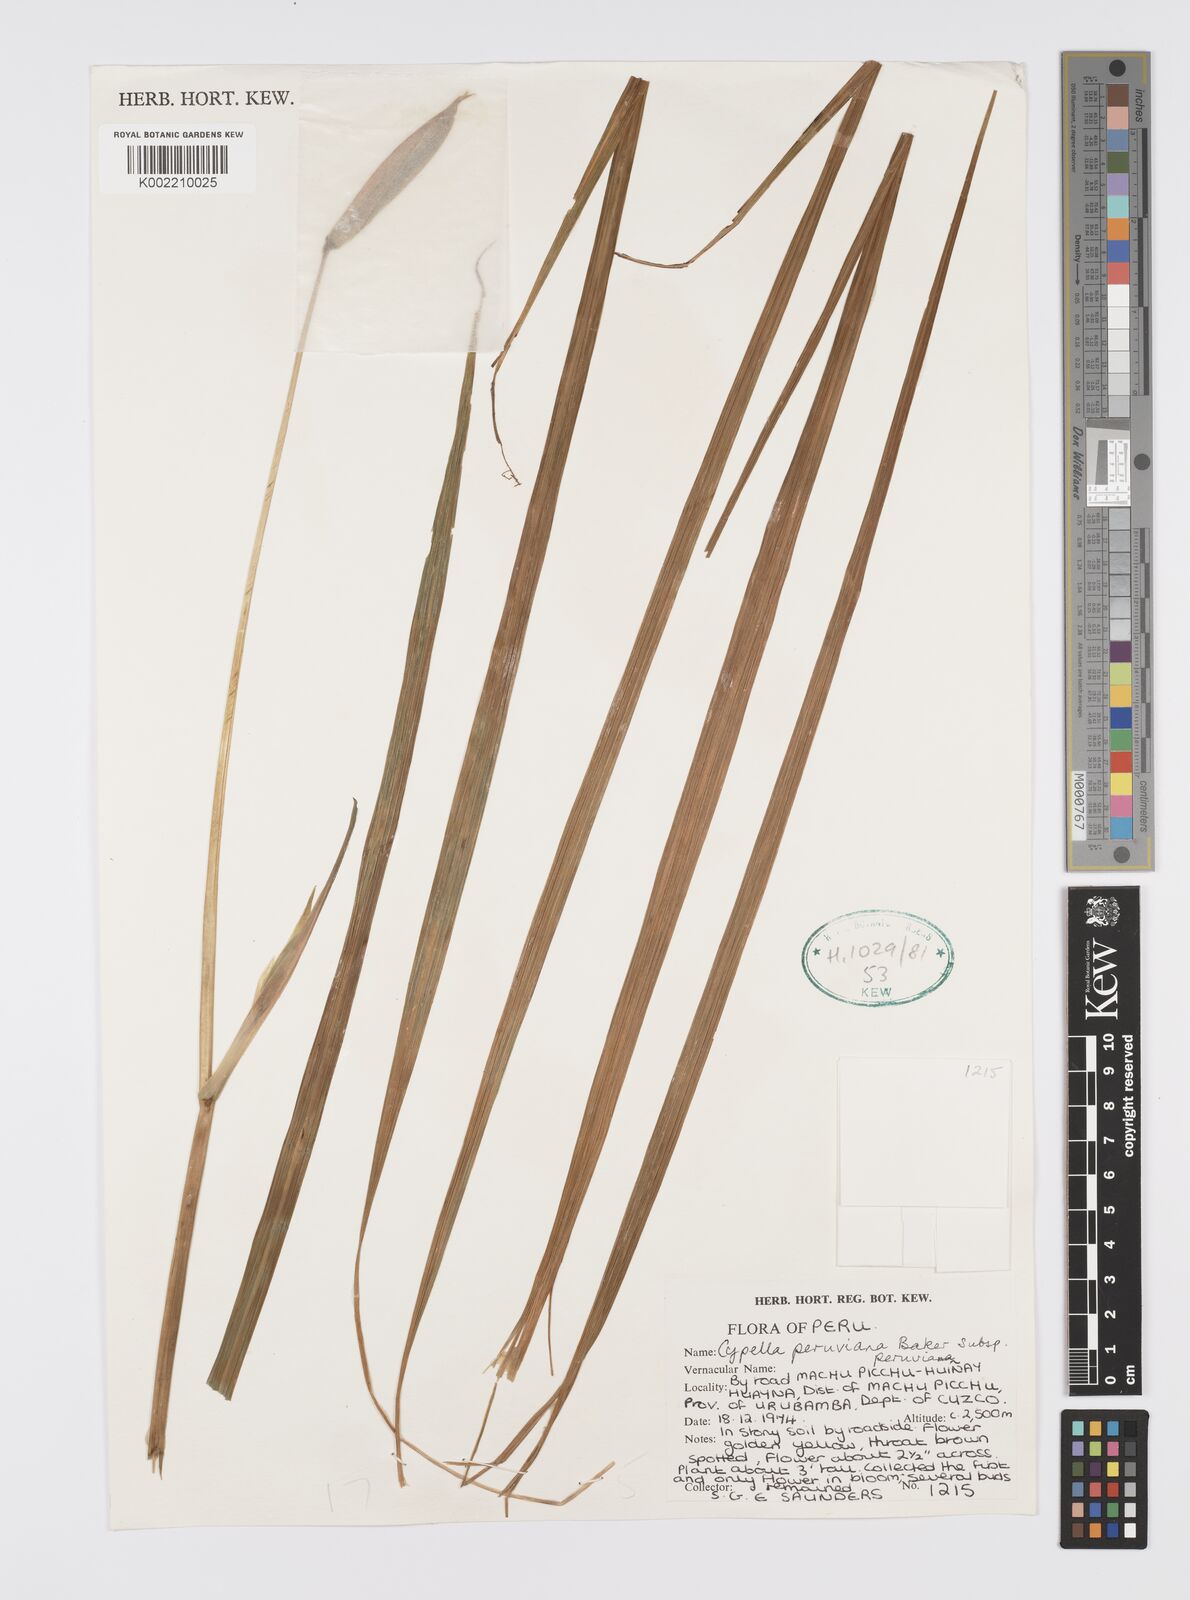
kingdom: Plantae
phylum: Tracheophyta
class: Liliopsida
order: Asparagales
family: Iridaceae
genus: Hesperoxiphion
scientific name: Hesperoxiphion peruvianum
